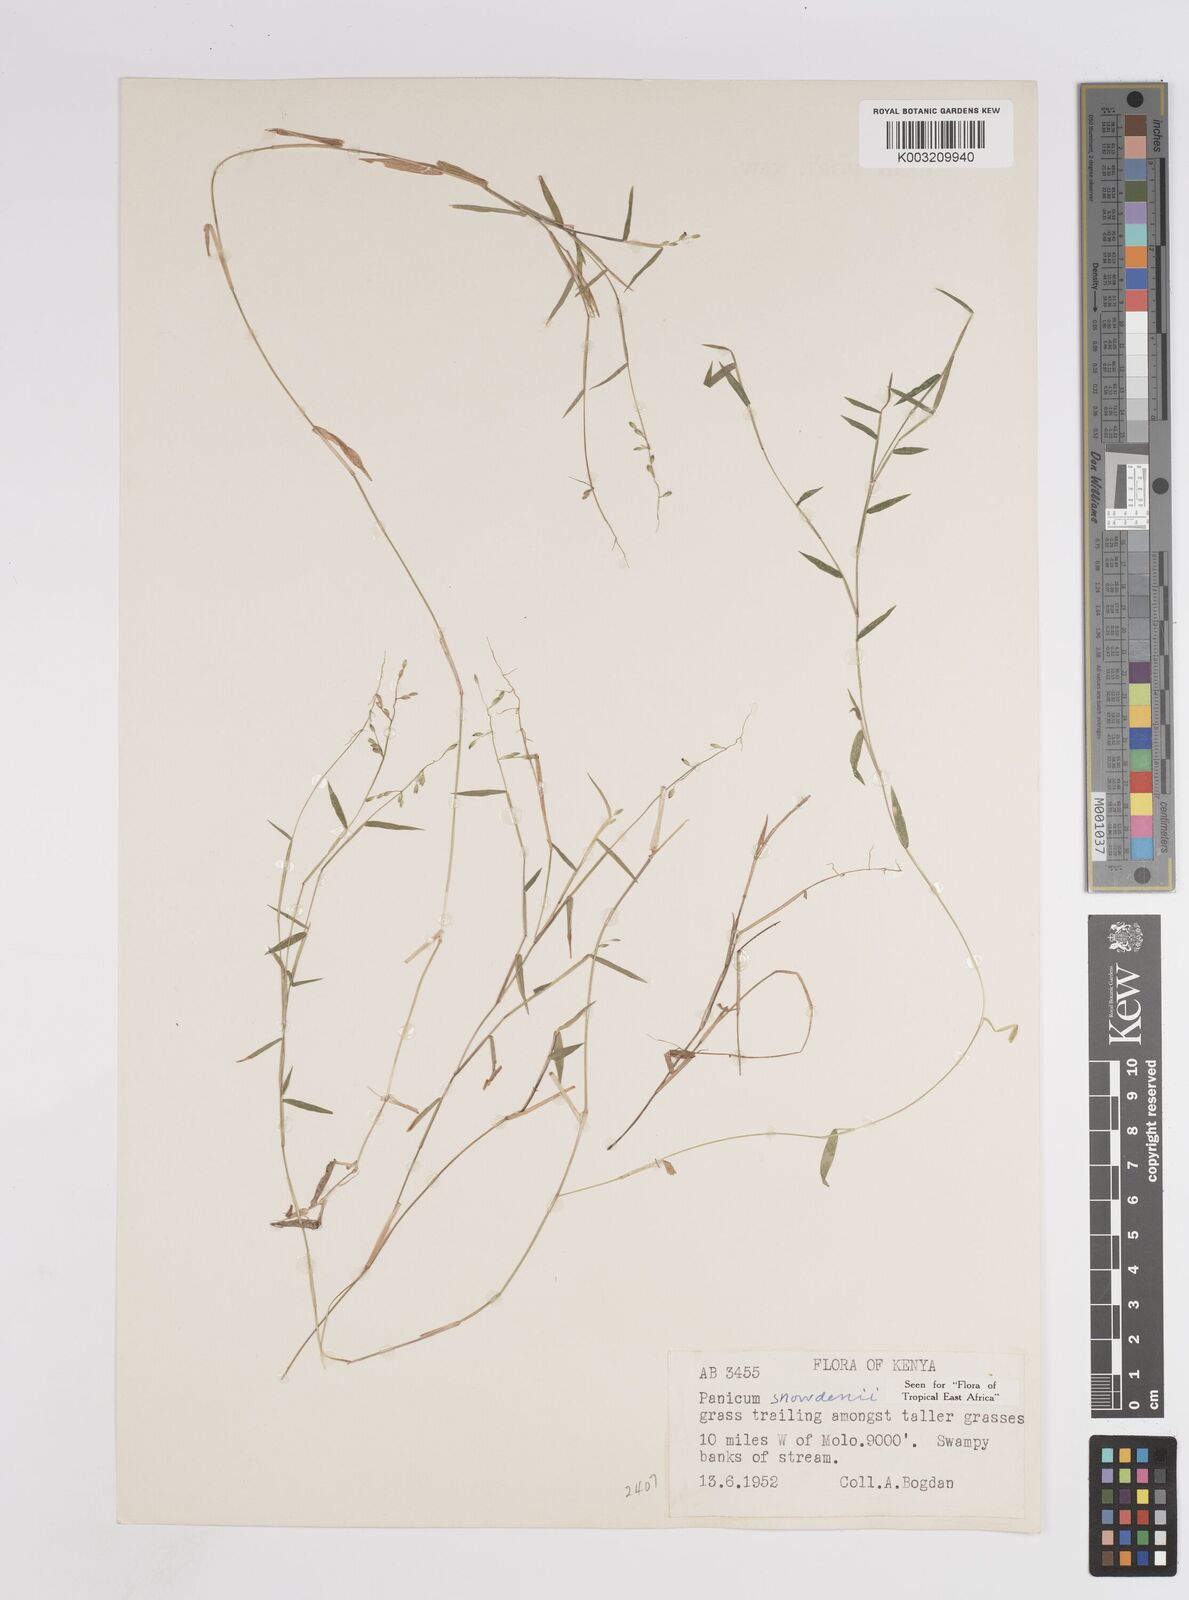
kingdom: Plantae
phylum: Tracheophyta
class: Liliopsida
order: Poales
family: Poaceae
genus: Adenochloa
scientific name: Adenochloa hymeniochila
